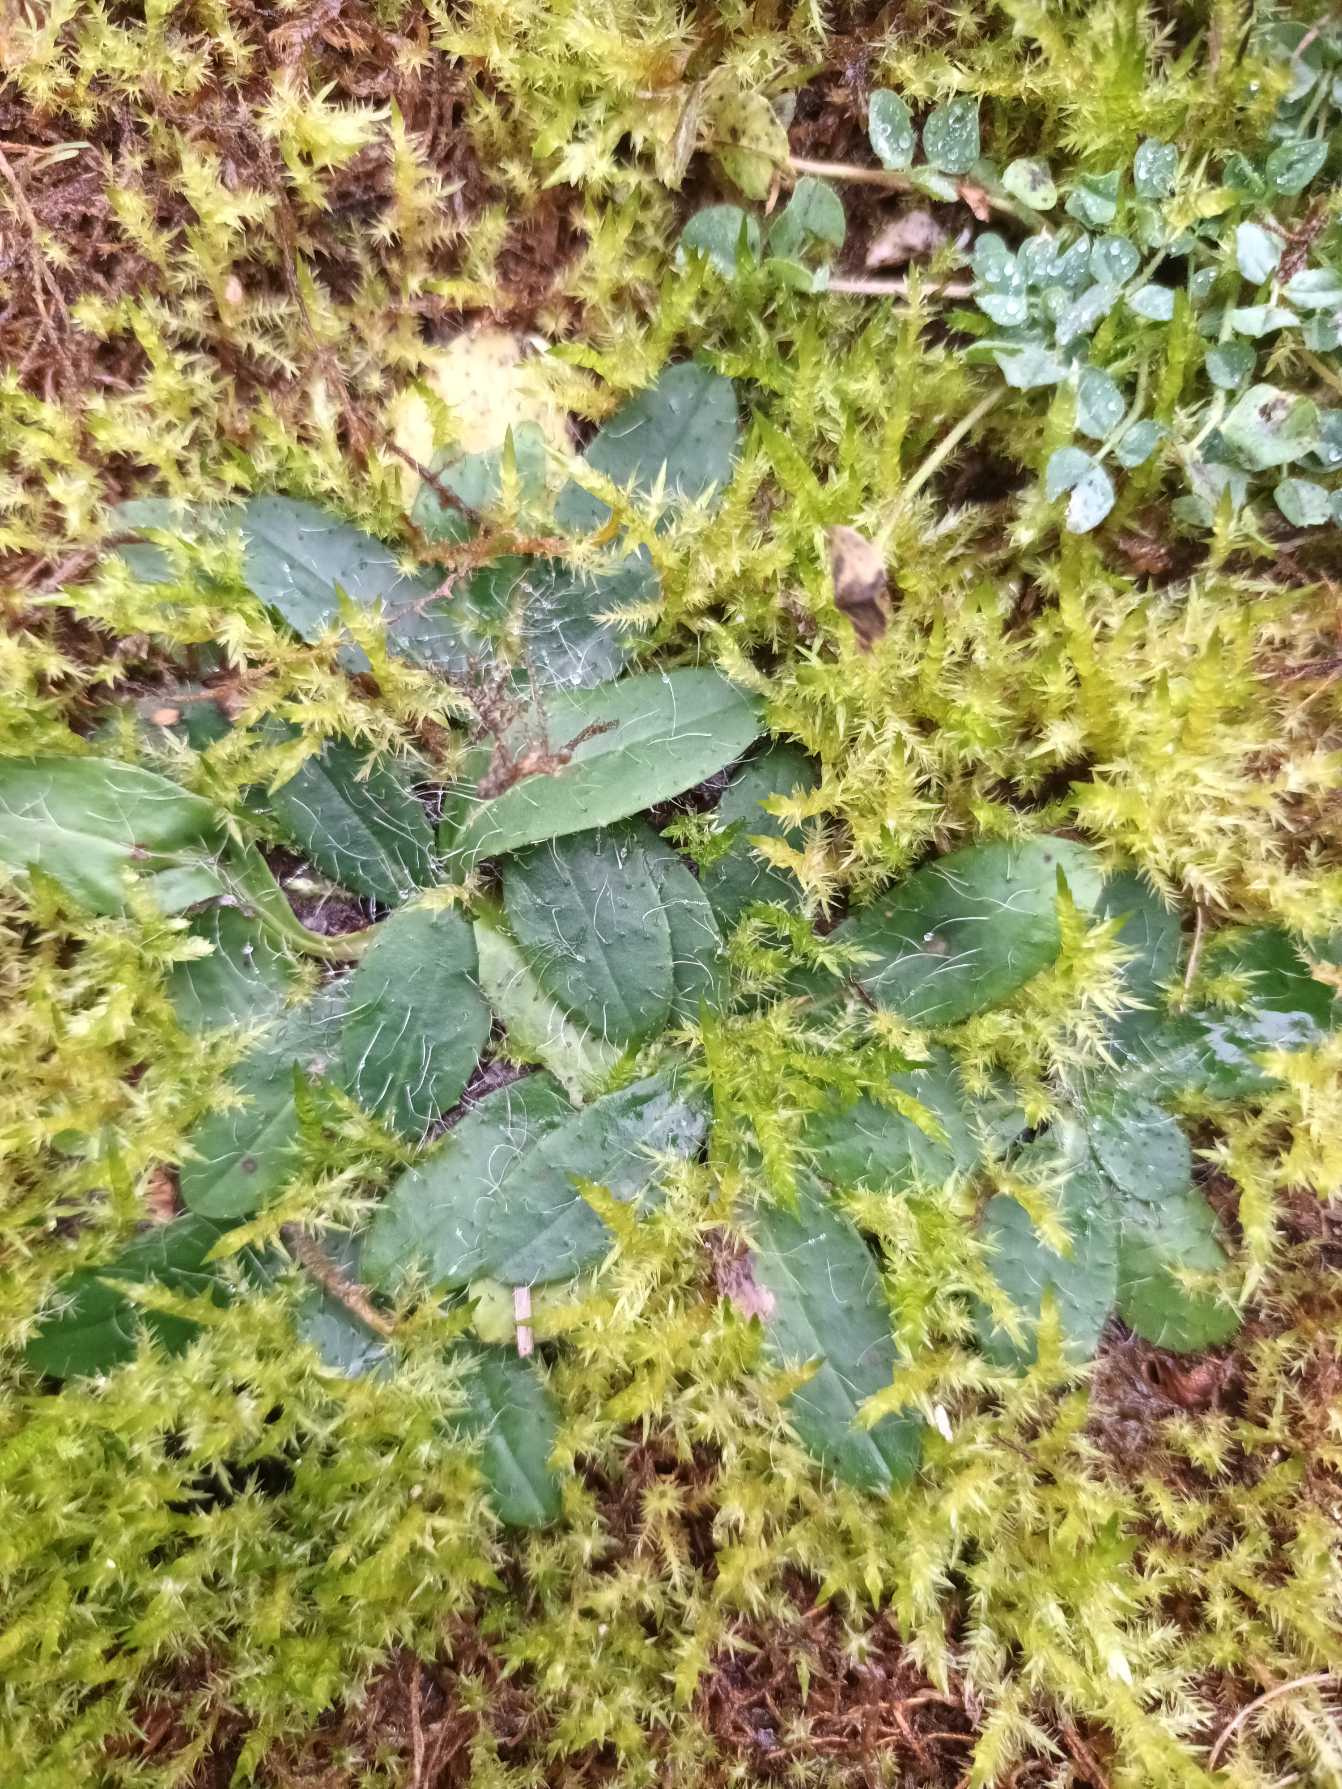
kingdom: Plantae
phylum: Tracheophyta
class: Magnoliopsida
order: Asterales
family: Asteraceae
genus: Pilosella
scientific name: Pilosella officinarum
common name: Håret høgeurt
